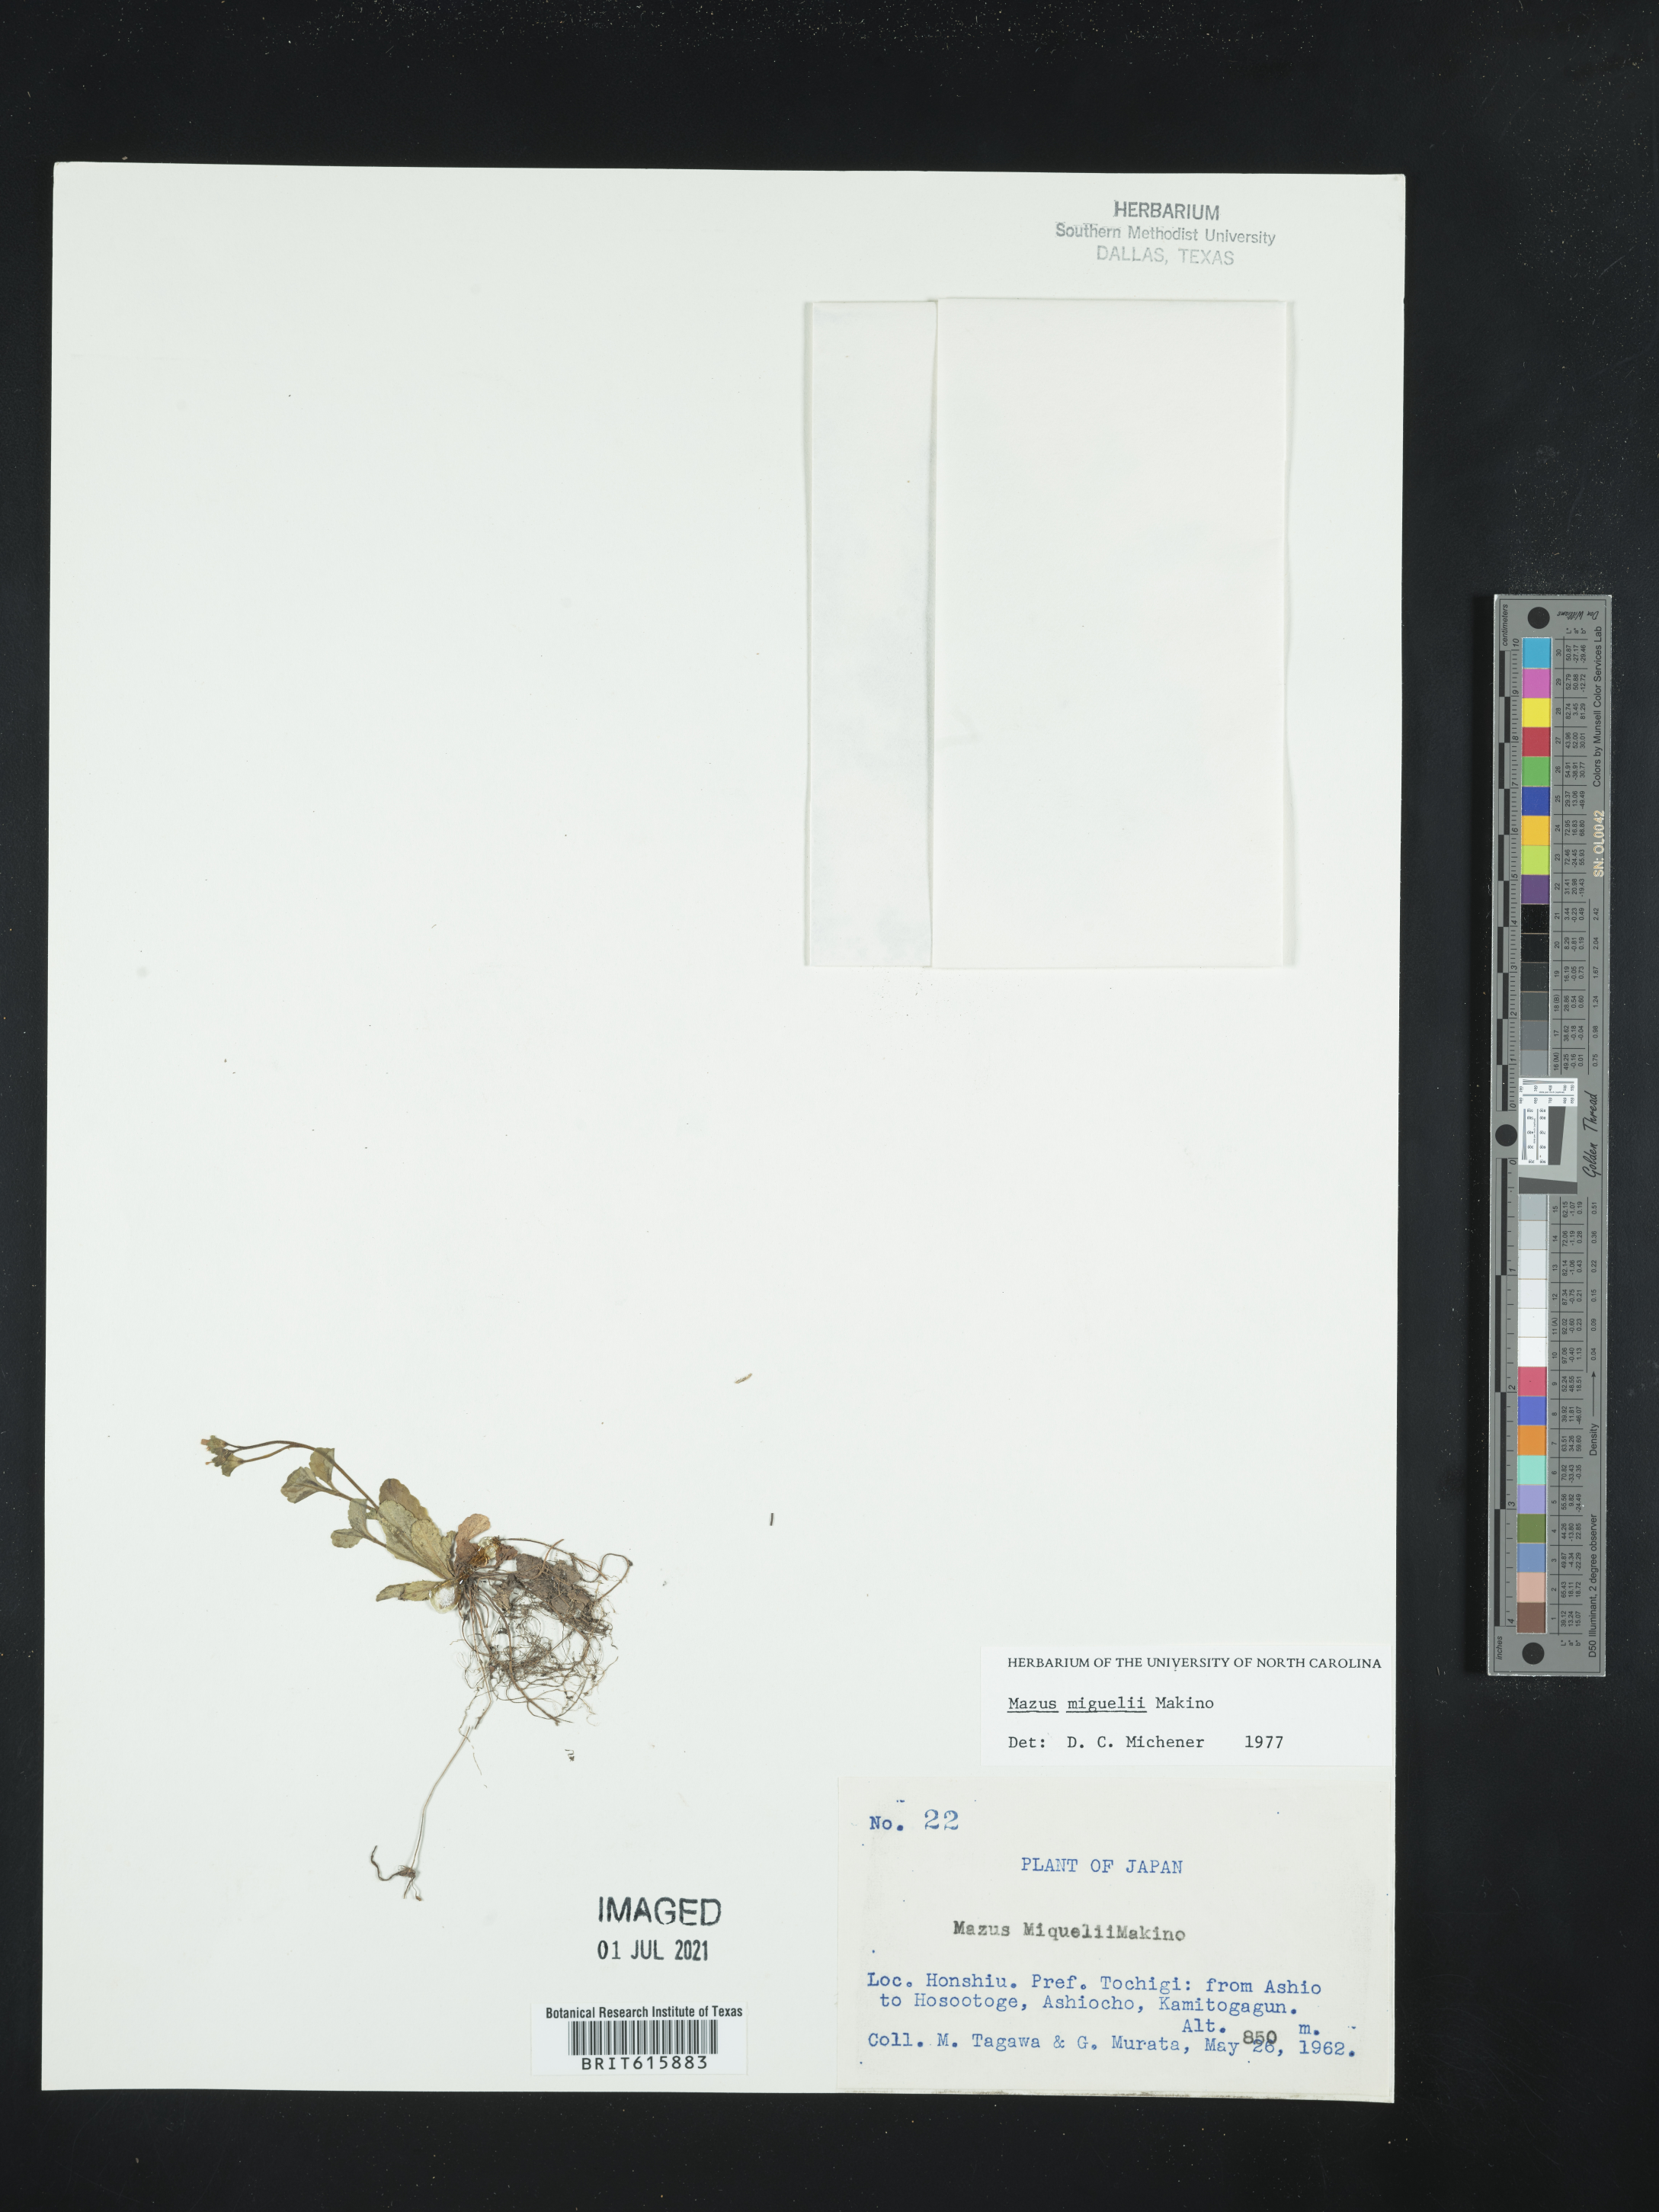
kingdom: Plantae
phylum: Tracheophyta
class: Magnoliopsida
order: Lamiales
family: Mazaceae
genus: Mazus
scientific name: Mazus miquelii
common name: Miquel's mazus
